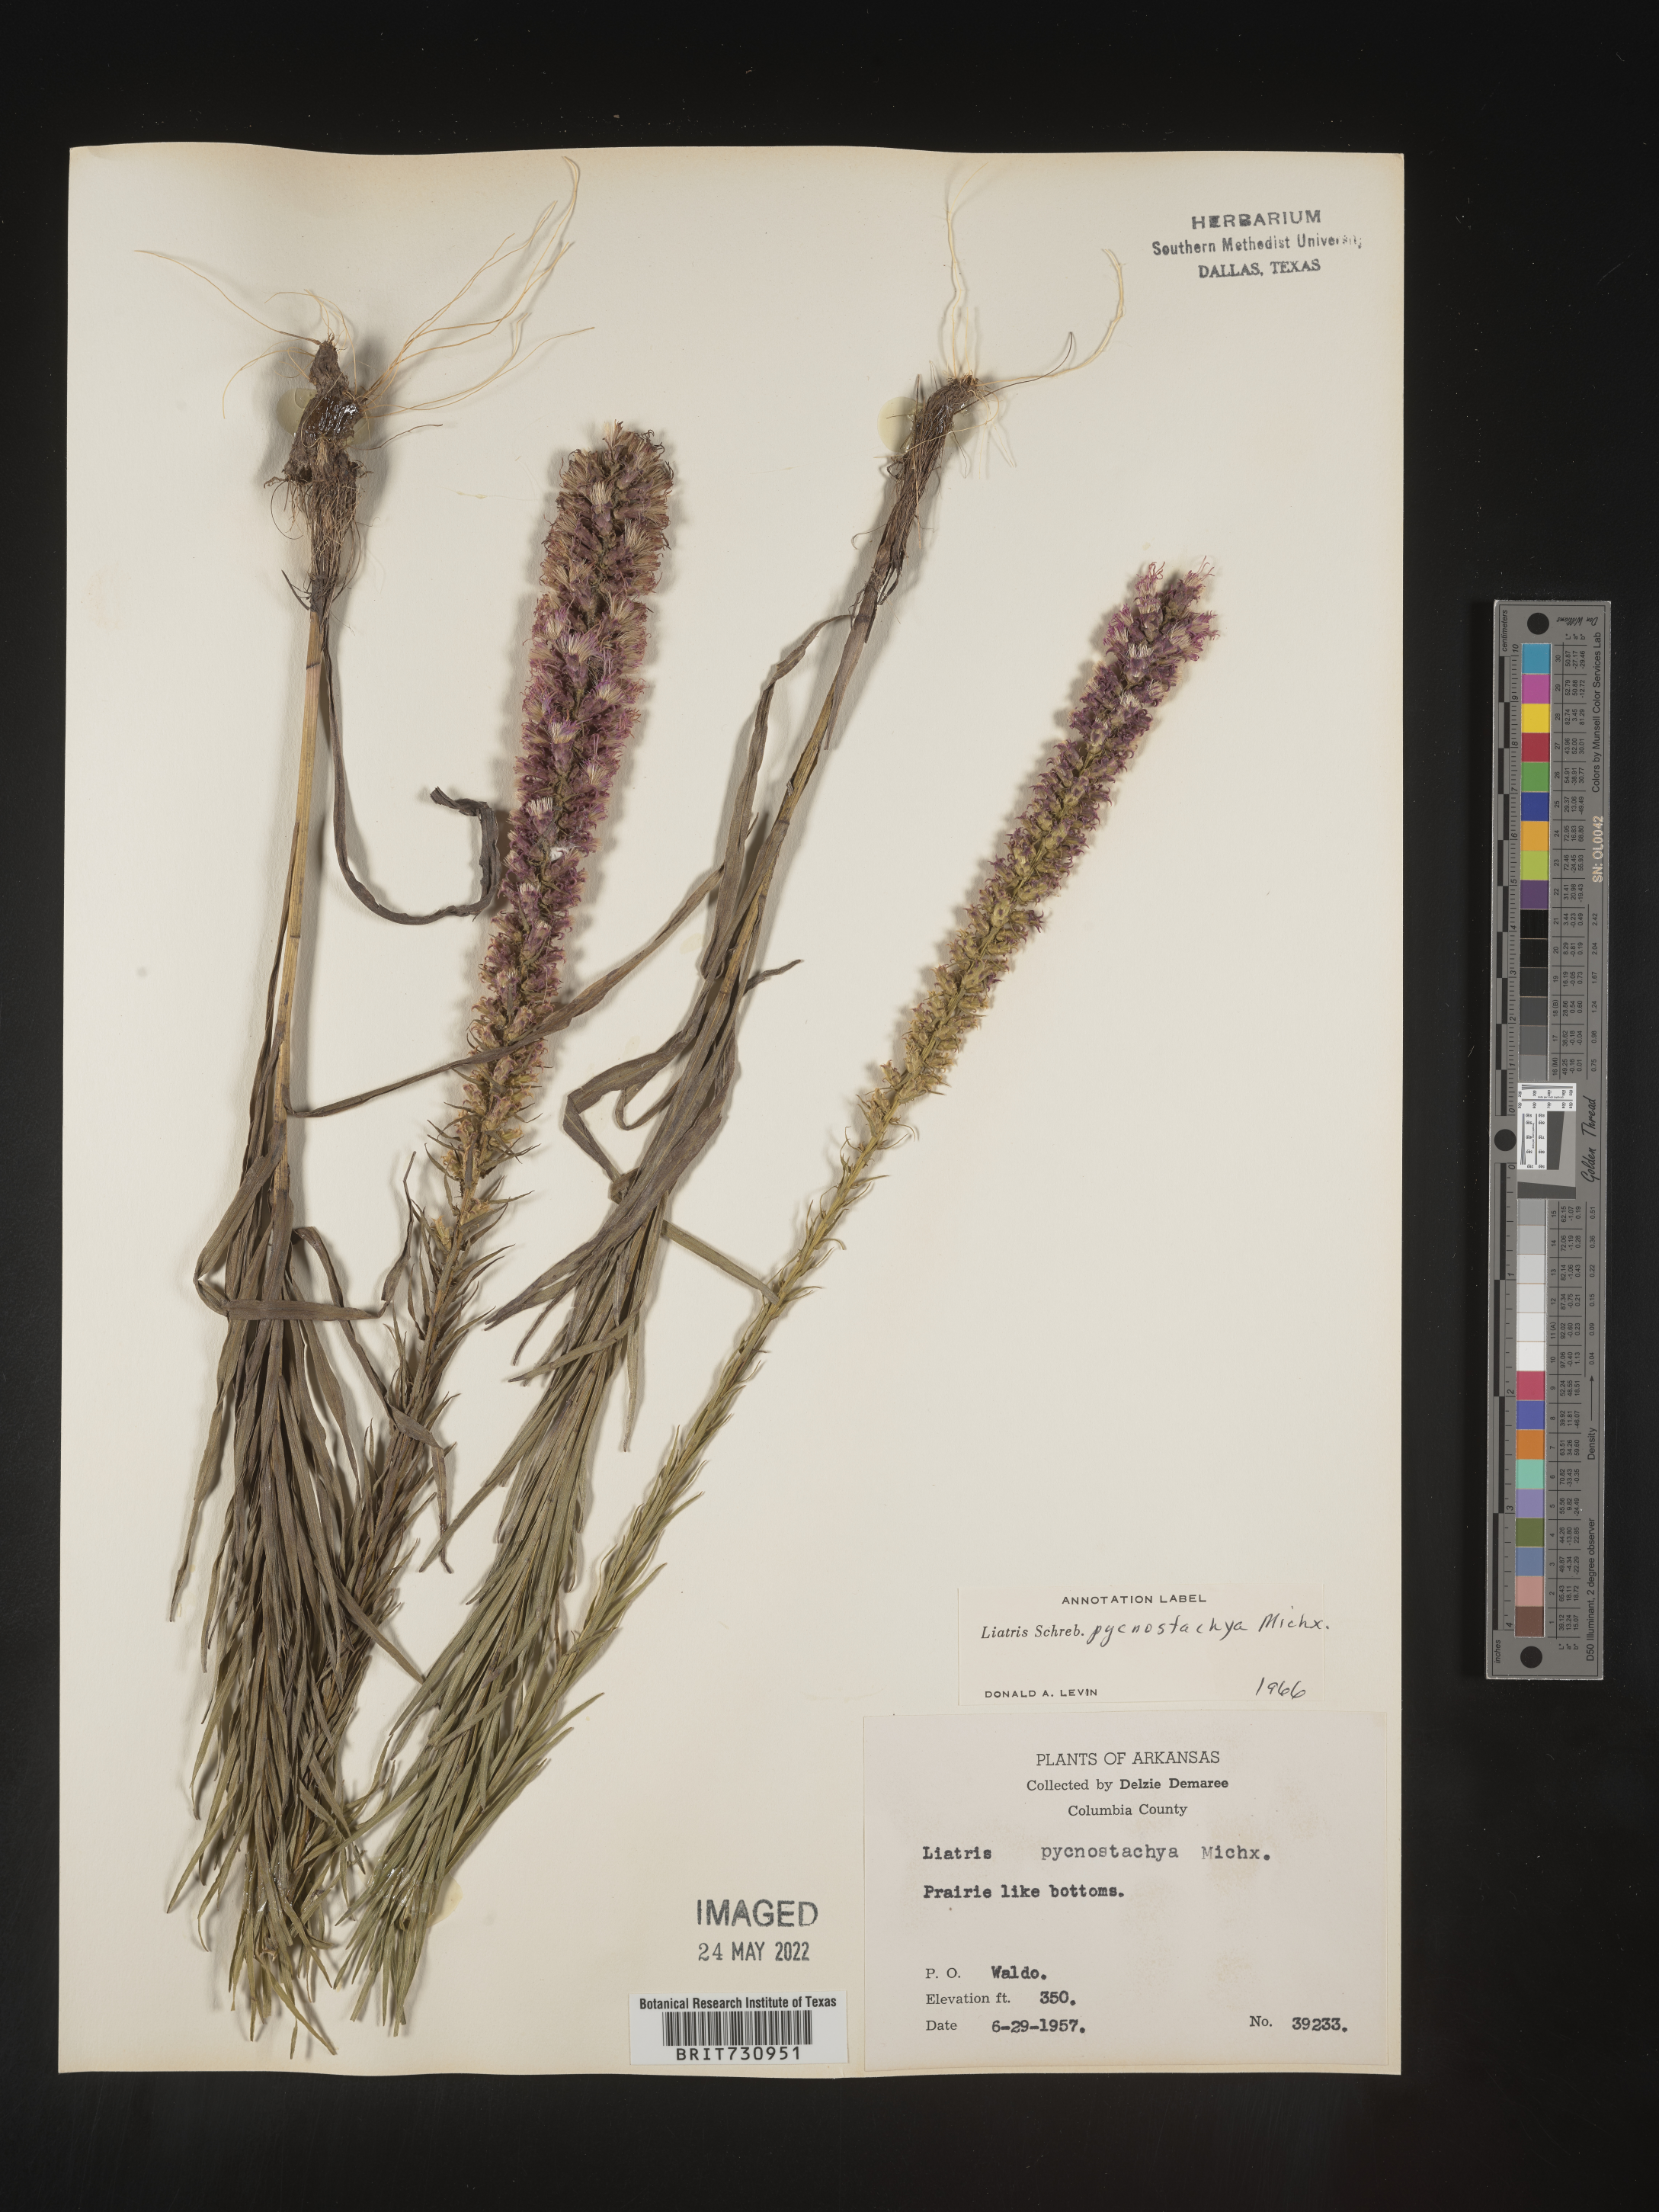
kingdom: Plantae
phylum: Tracheophyta
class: Magnoliopsida
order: Asterales
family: Asteraceae
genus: Liatris
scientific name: Liatris pycnostachya
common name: Cattail gayfeather
